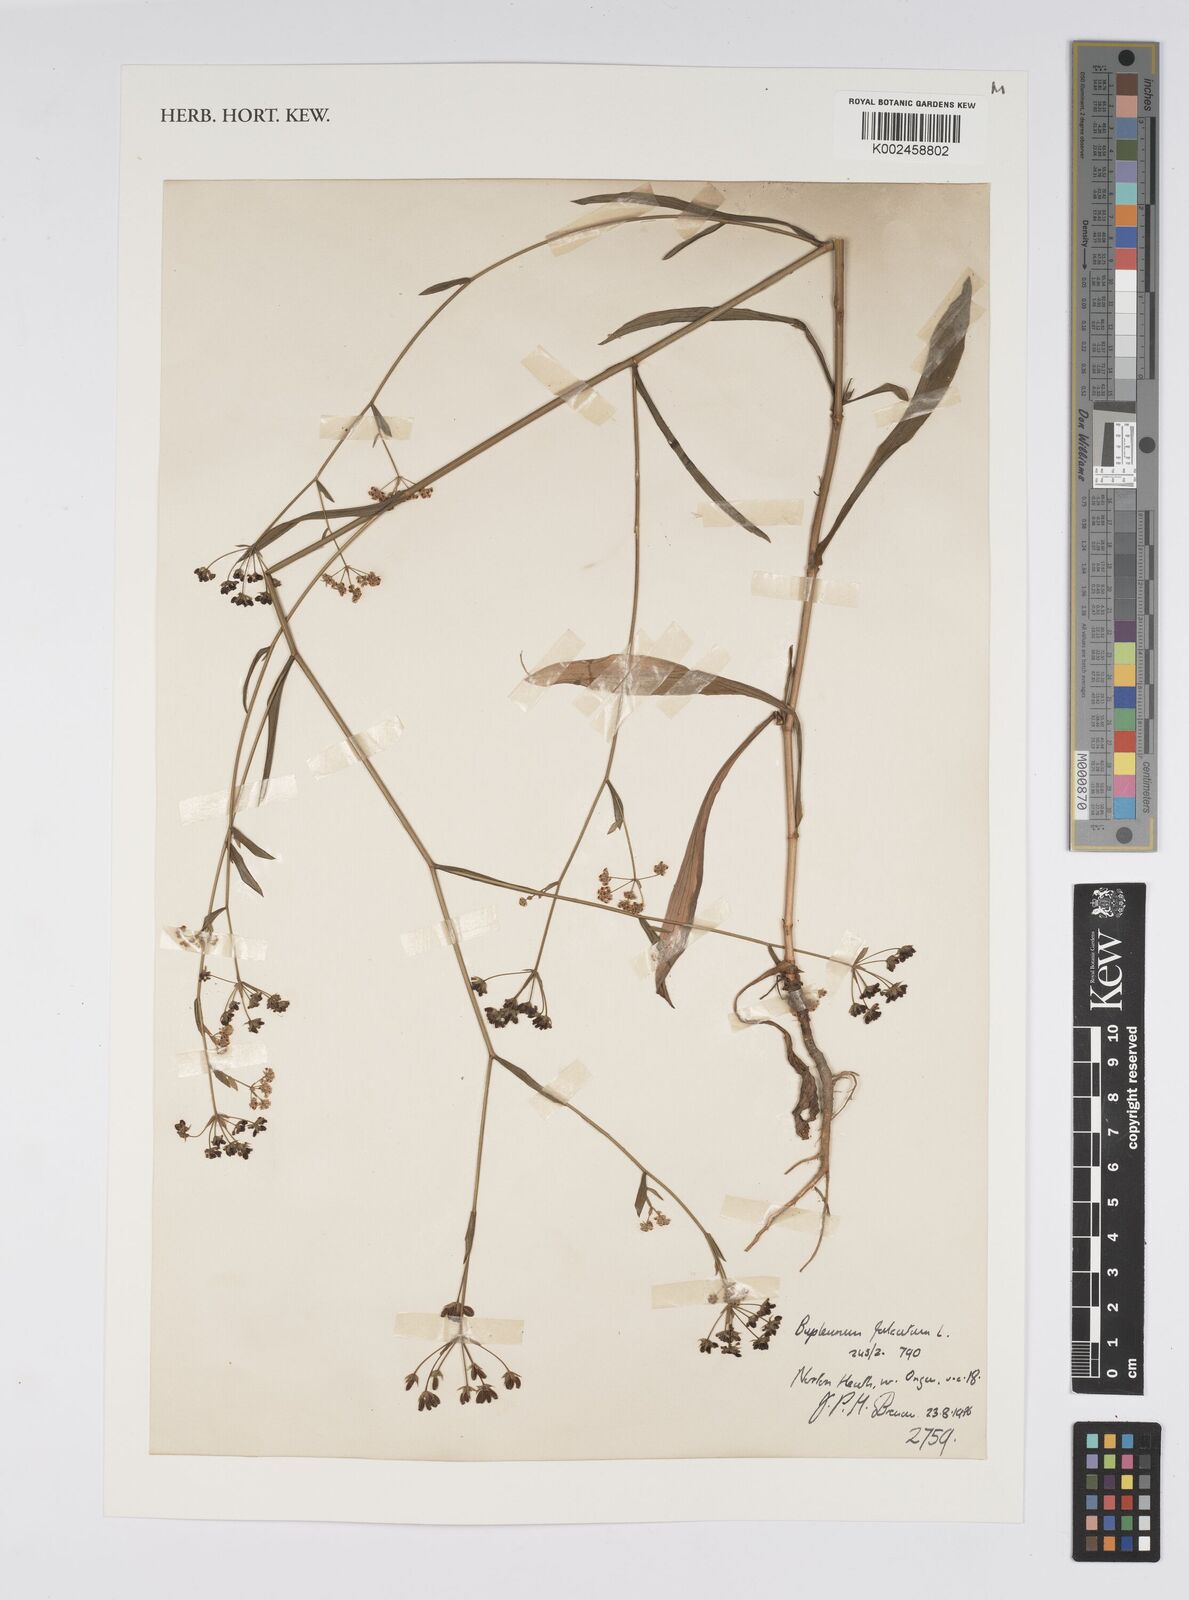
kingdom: Plantae
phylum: Tracheophyta
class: Magnoliopsida
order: Apiales
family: Apiaceae
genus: Bupleurum
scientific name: Bupleurum falcatum
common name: Sickle-leaved hare's-ear
